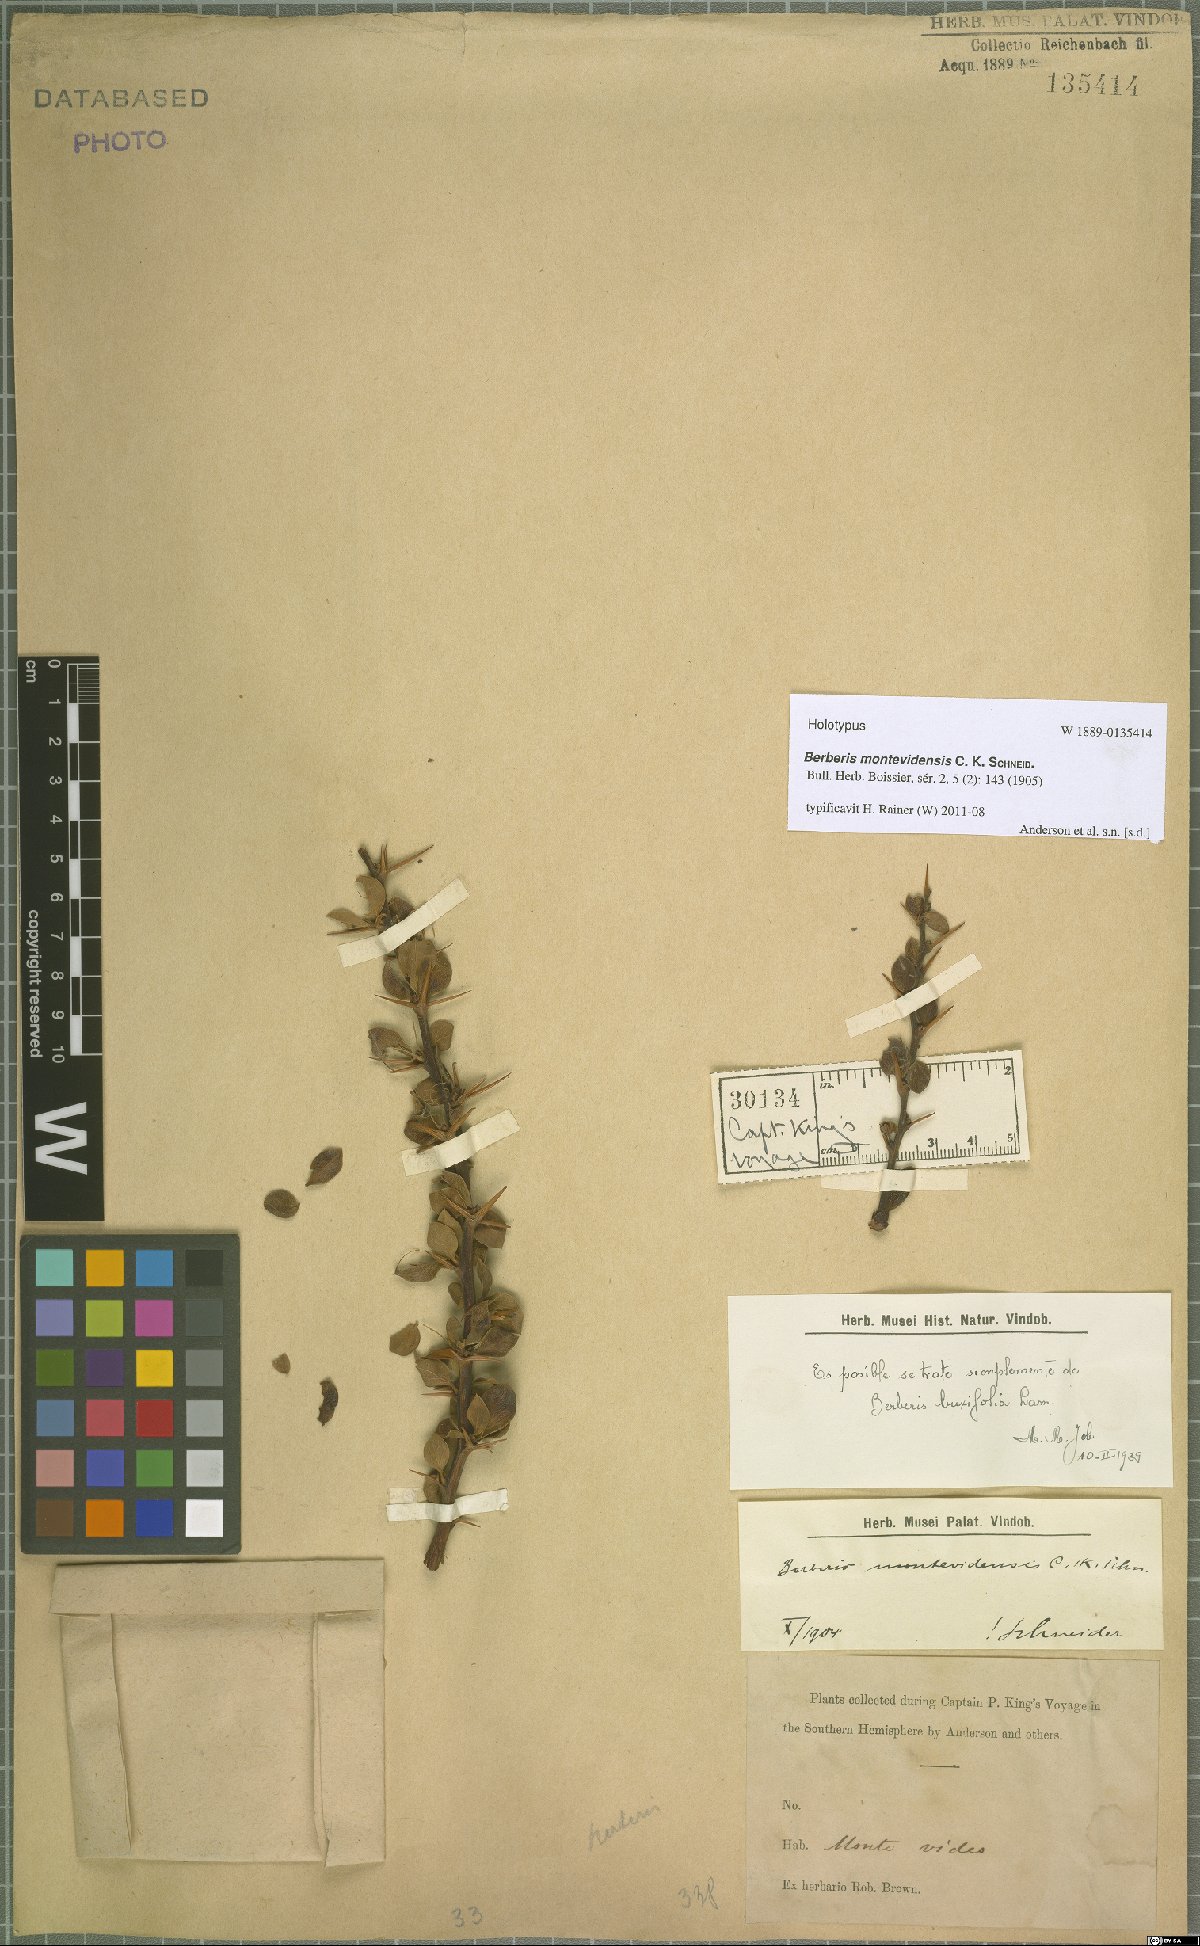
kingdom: Plantae
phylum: Tracheophyta
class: Magnoliopsida
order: Ranunculales
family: Berberidaceae
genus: Berberis
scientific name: Berberis montevidensis
